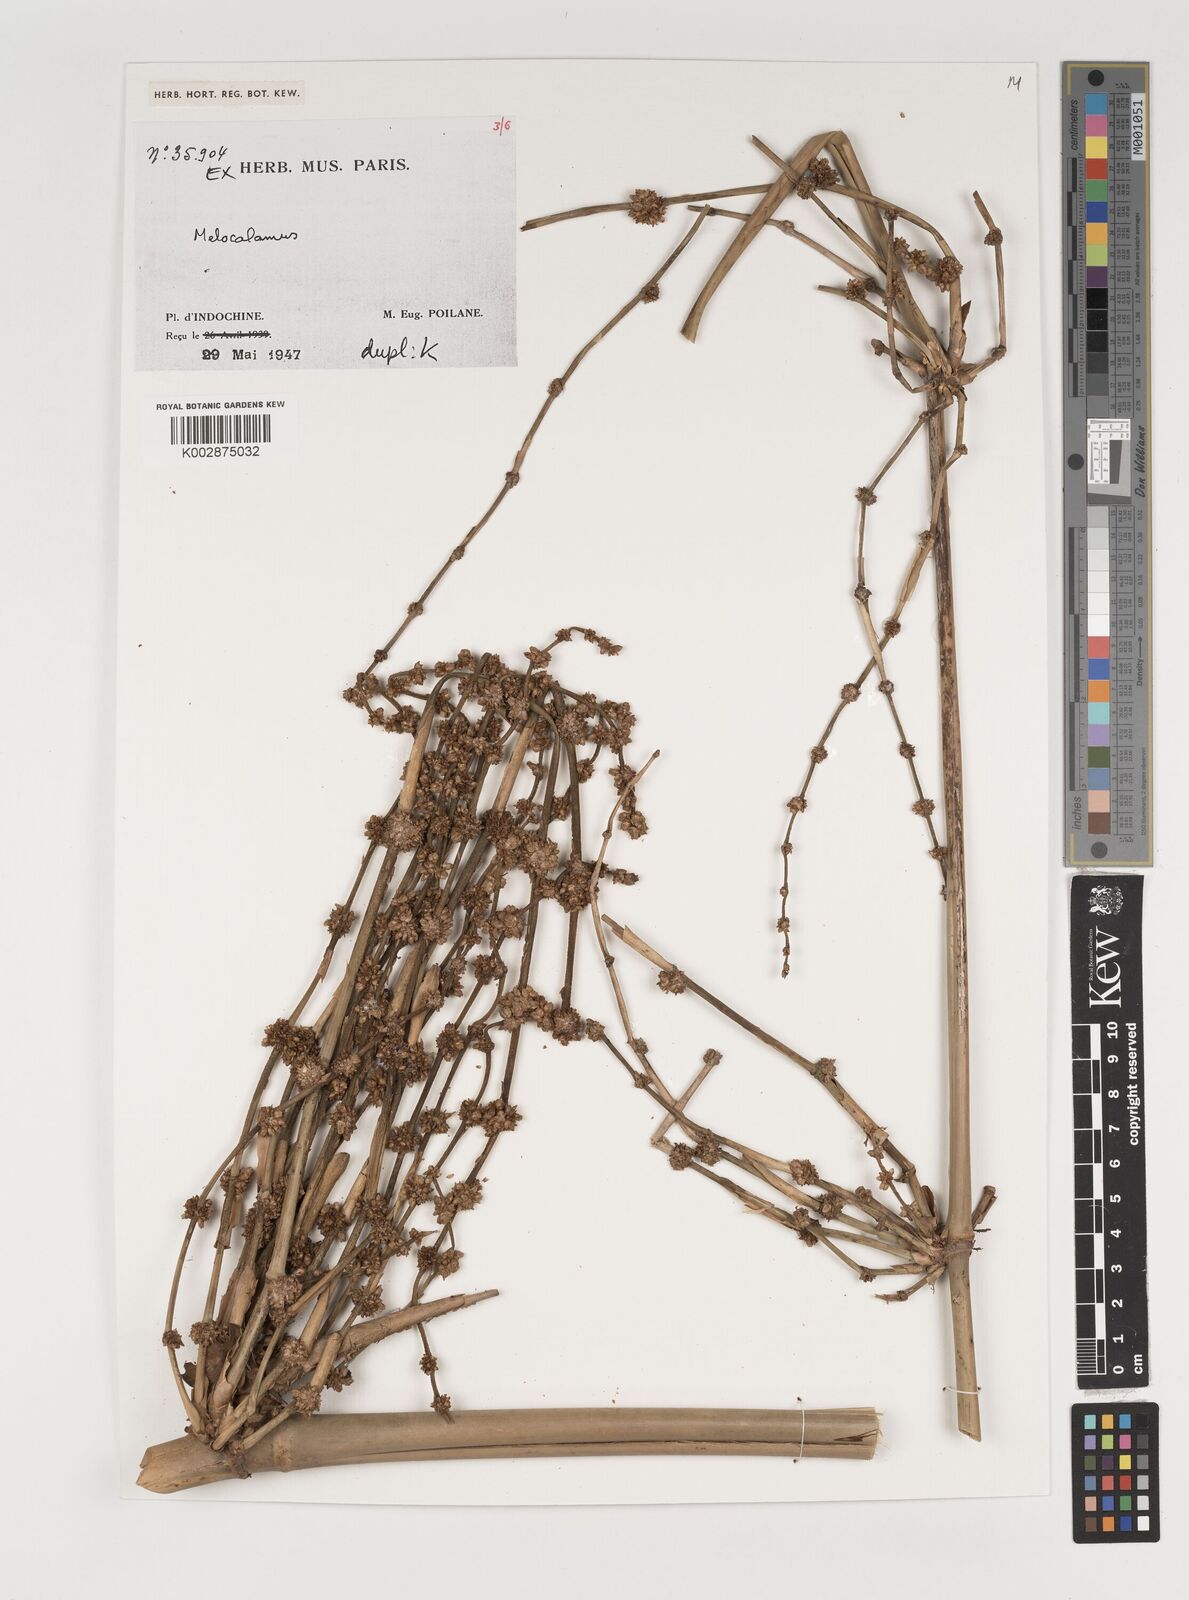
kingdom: Plantae
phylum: Tracheophyta
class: Liliopsida
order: Poales
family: Poaceae
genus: Melocalamus
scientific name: Melocalamus
